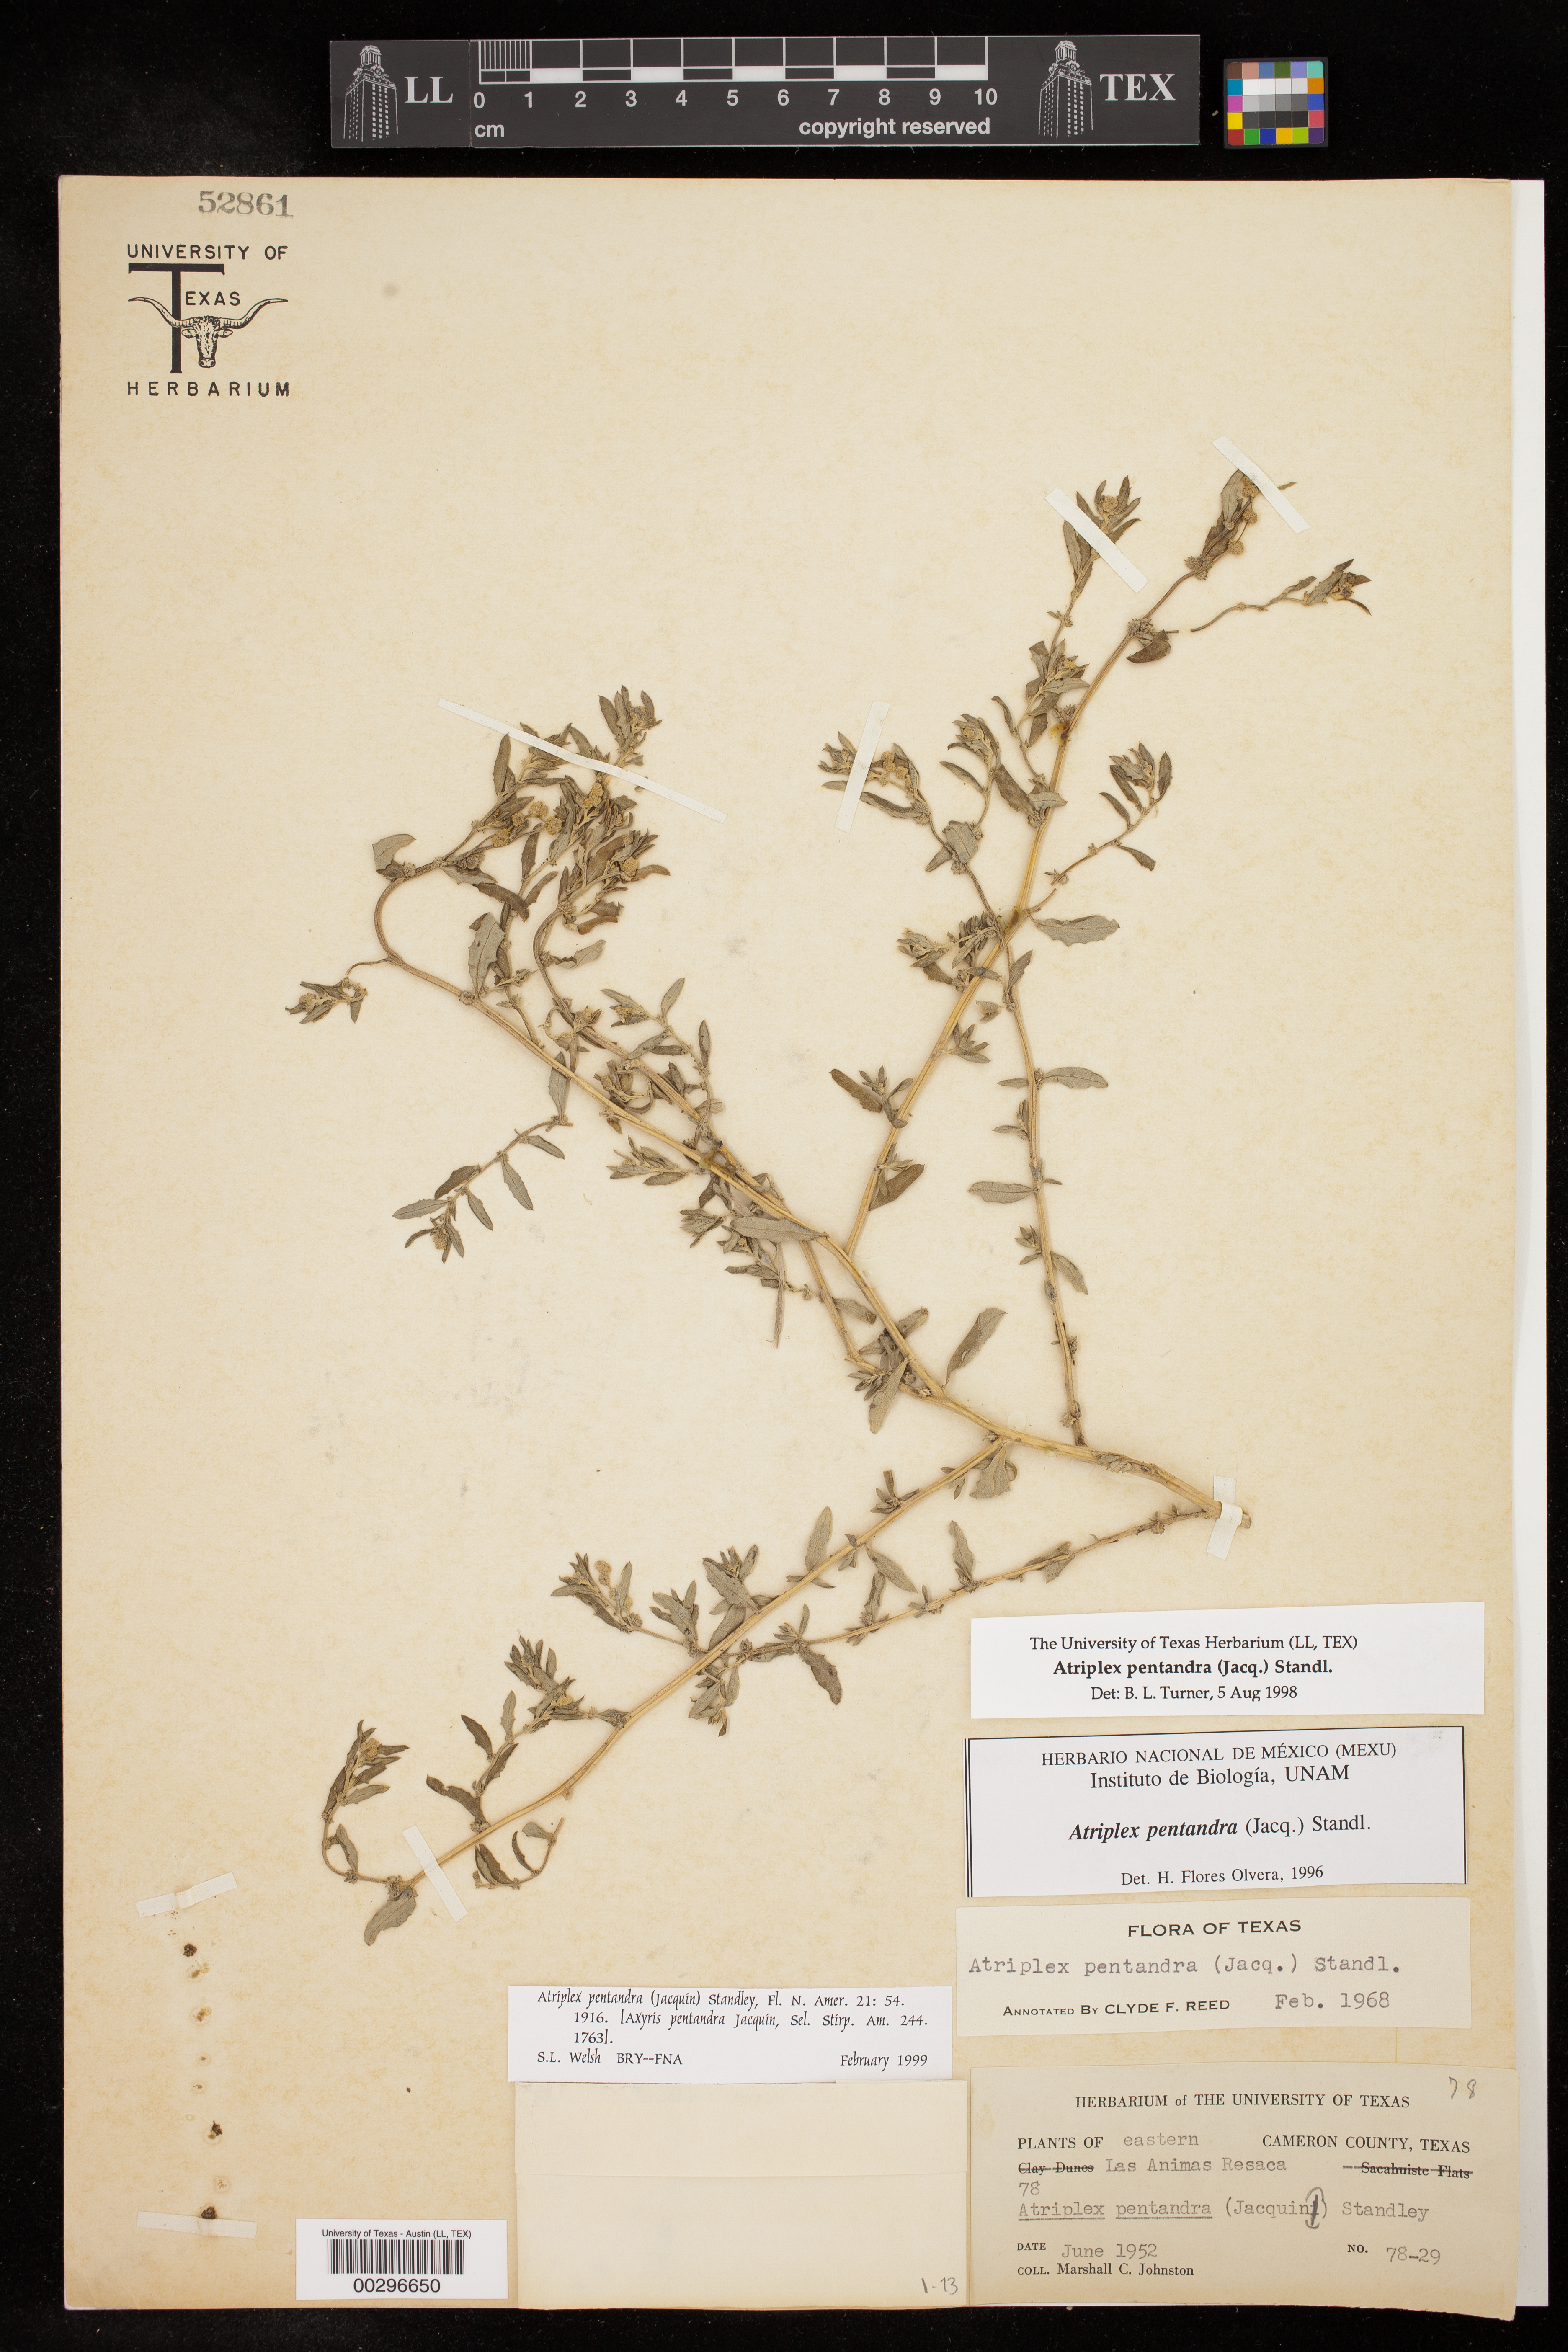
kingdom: Plantae
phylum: Tracheophyta
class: Magnoliopsida
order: Caryophyllales
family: Amaranthaceae
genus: Atriplex
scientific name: Atriplex cristata
